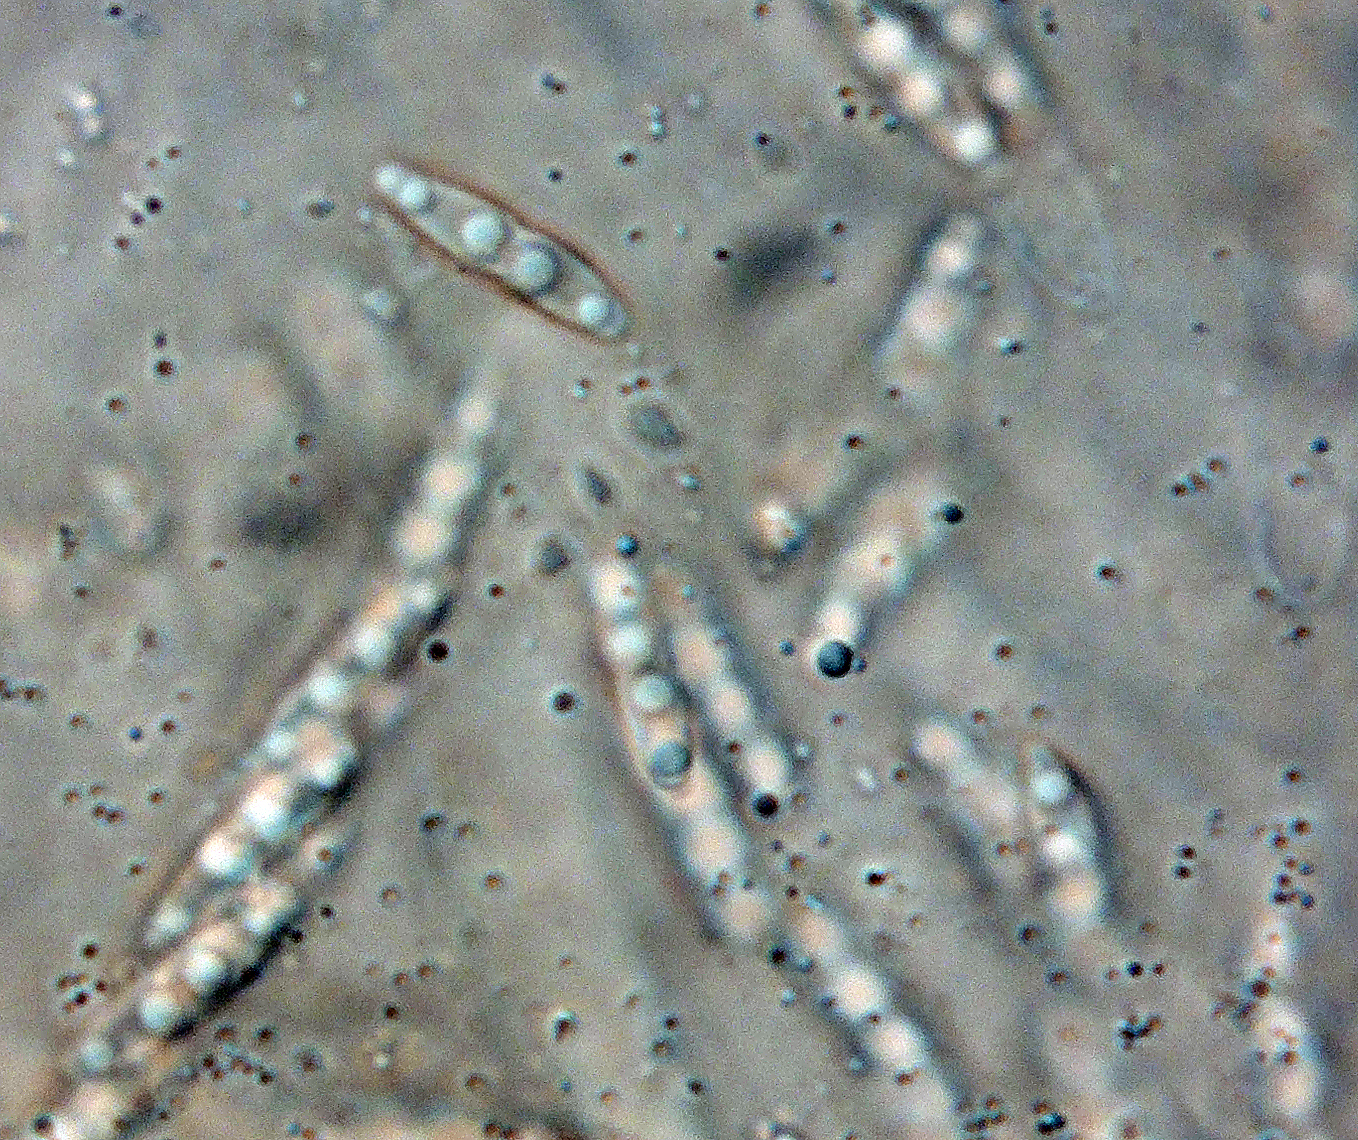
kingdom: Fungi
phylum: Ascomycota
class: Sordariomycetes
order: Diaporthales
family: Diaporthaceae
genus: Diaporthe
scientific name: Diaporthe arctii
